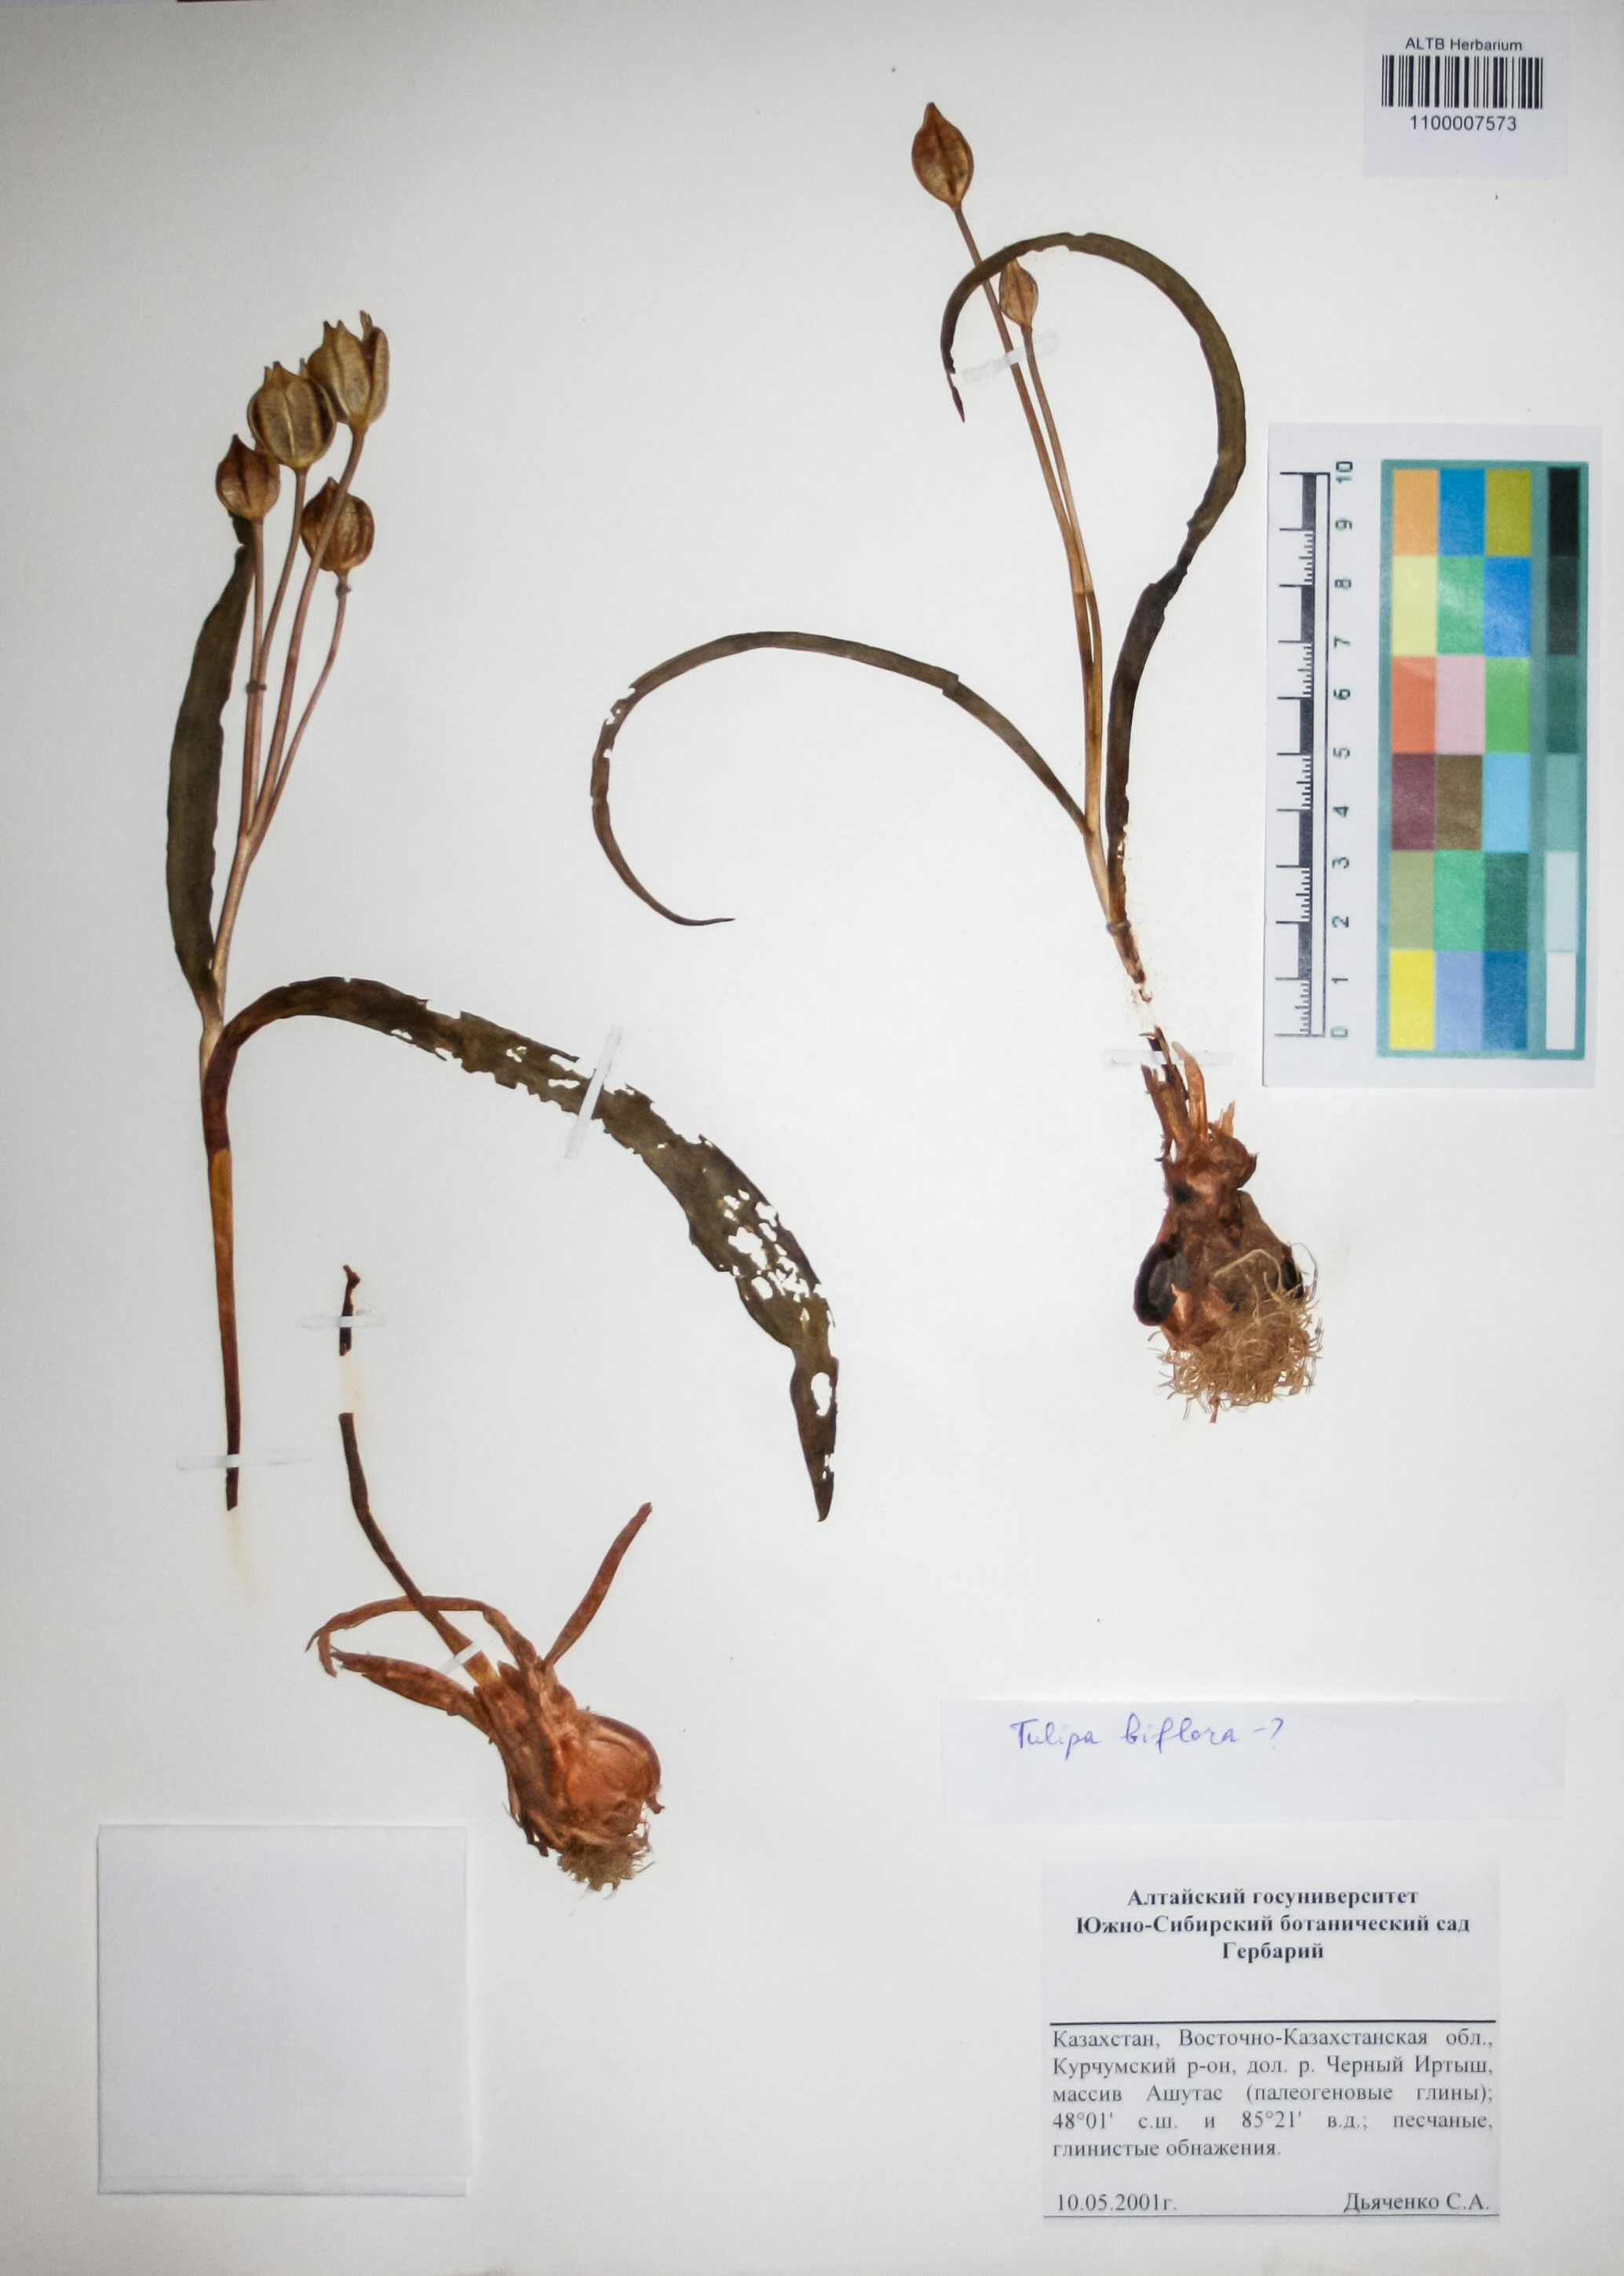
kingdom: Plantae
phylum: Tracheophyta
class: Liliopsida
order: Liliales
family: Liliaceae
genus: Tulipa
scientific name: Tulipa biflora
